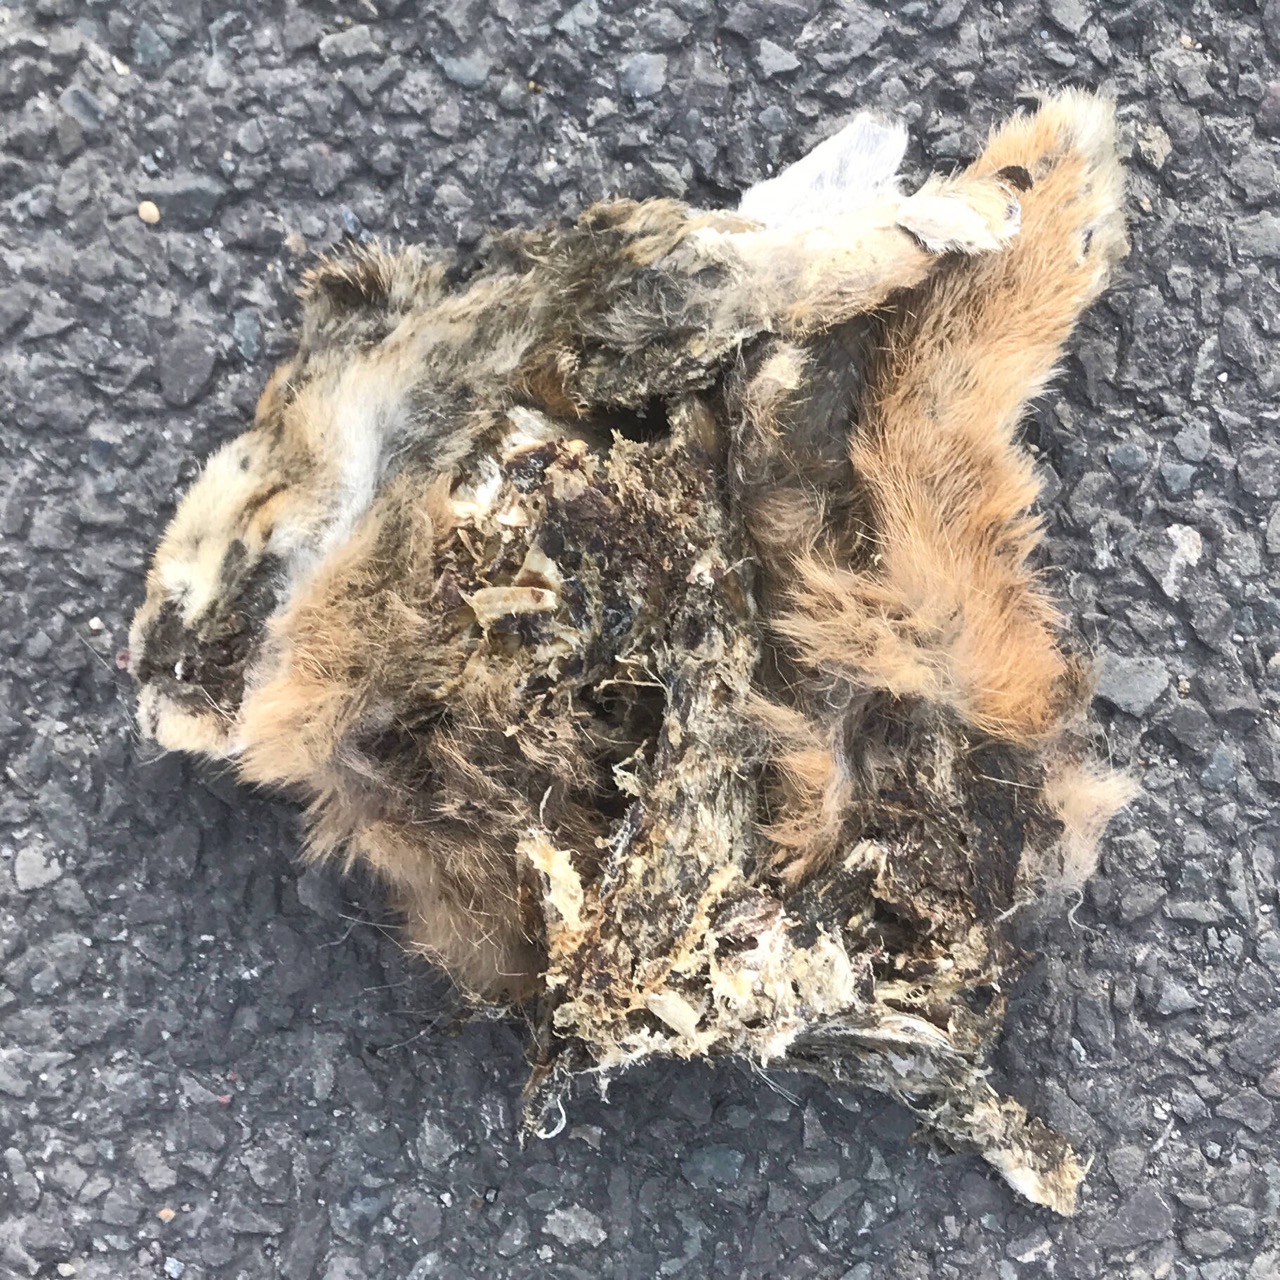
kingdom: Animalia
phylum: Chordata
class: Mammalia
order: Carnivora
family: Felidae
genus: Felis
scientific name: Felis catus
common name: Domestic cat
